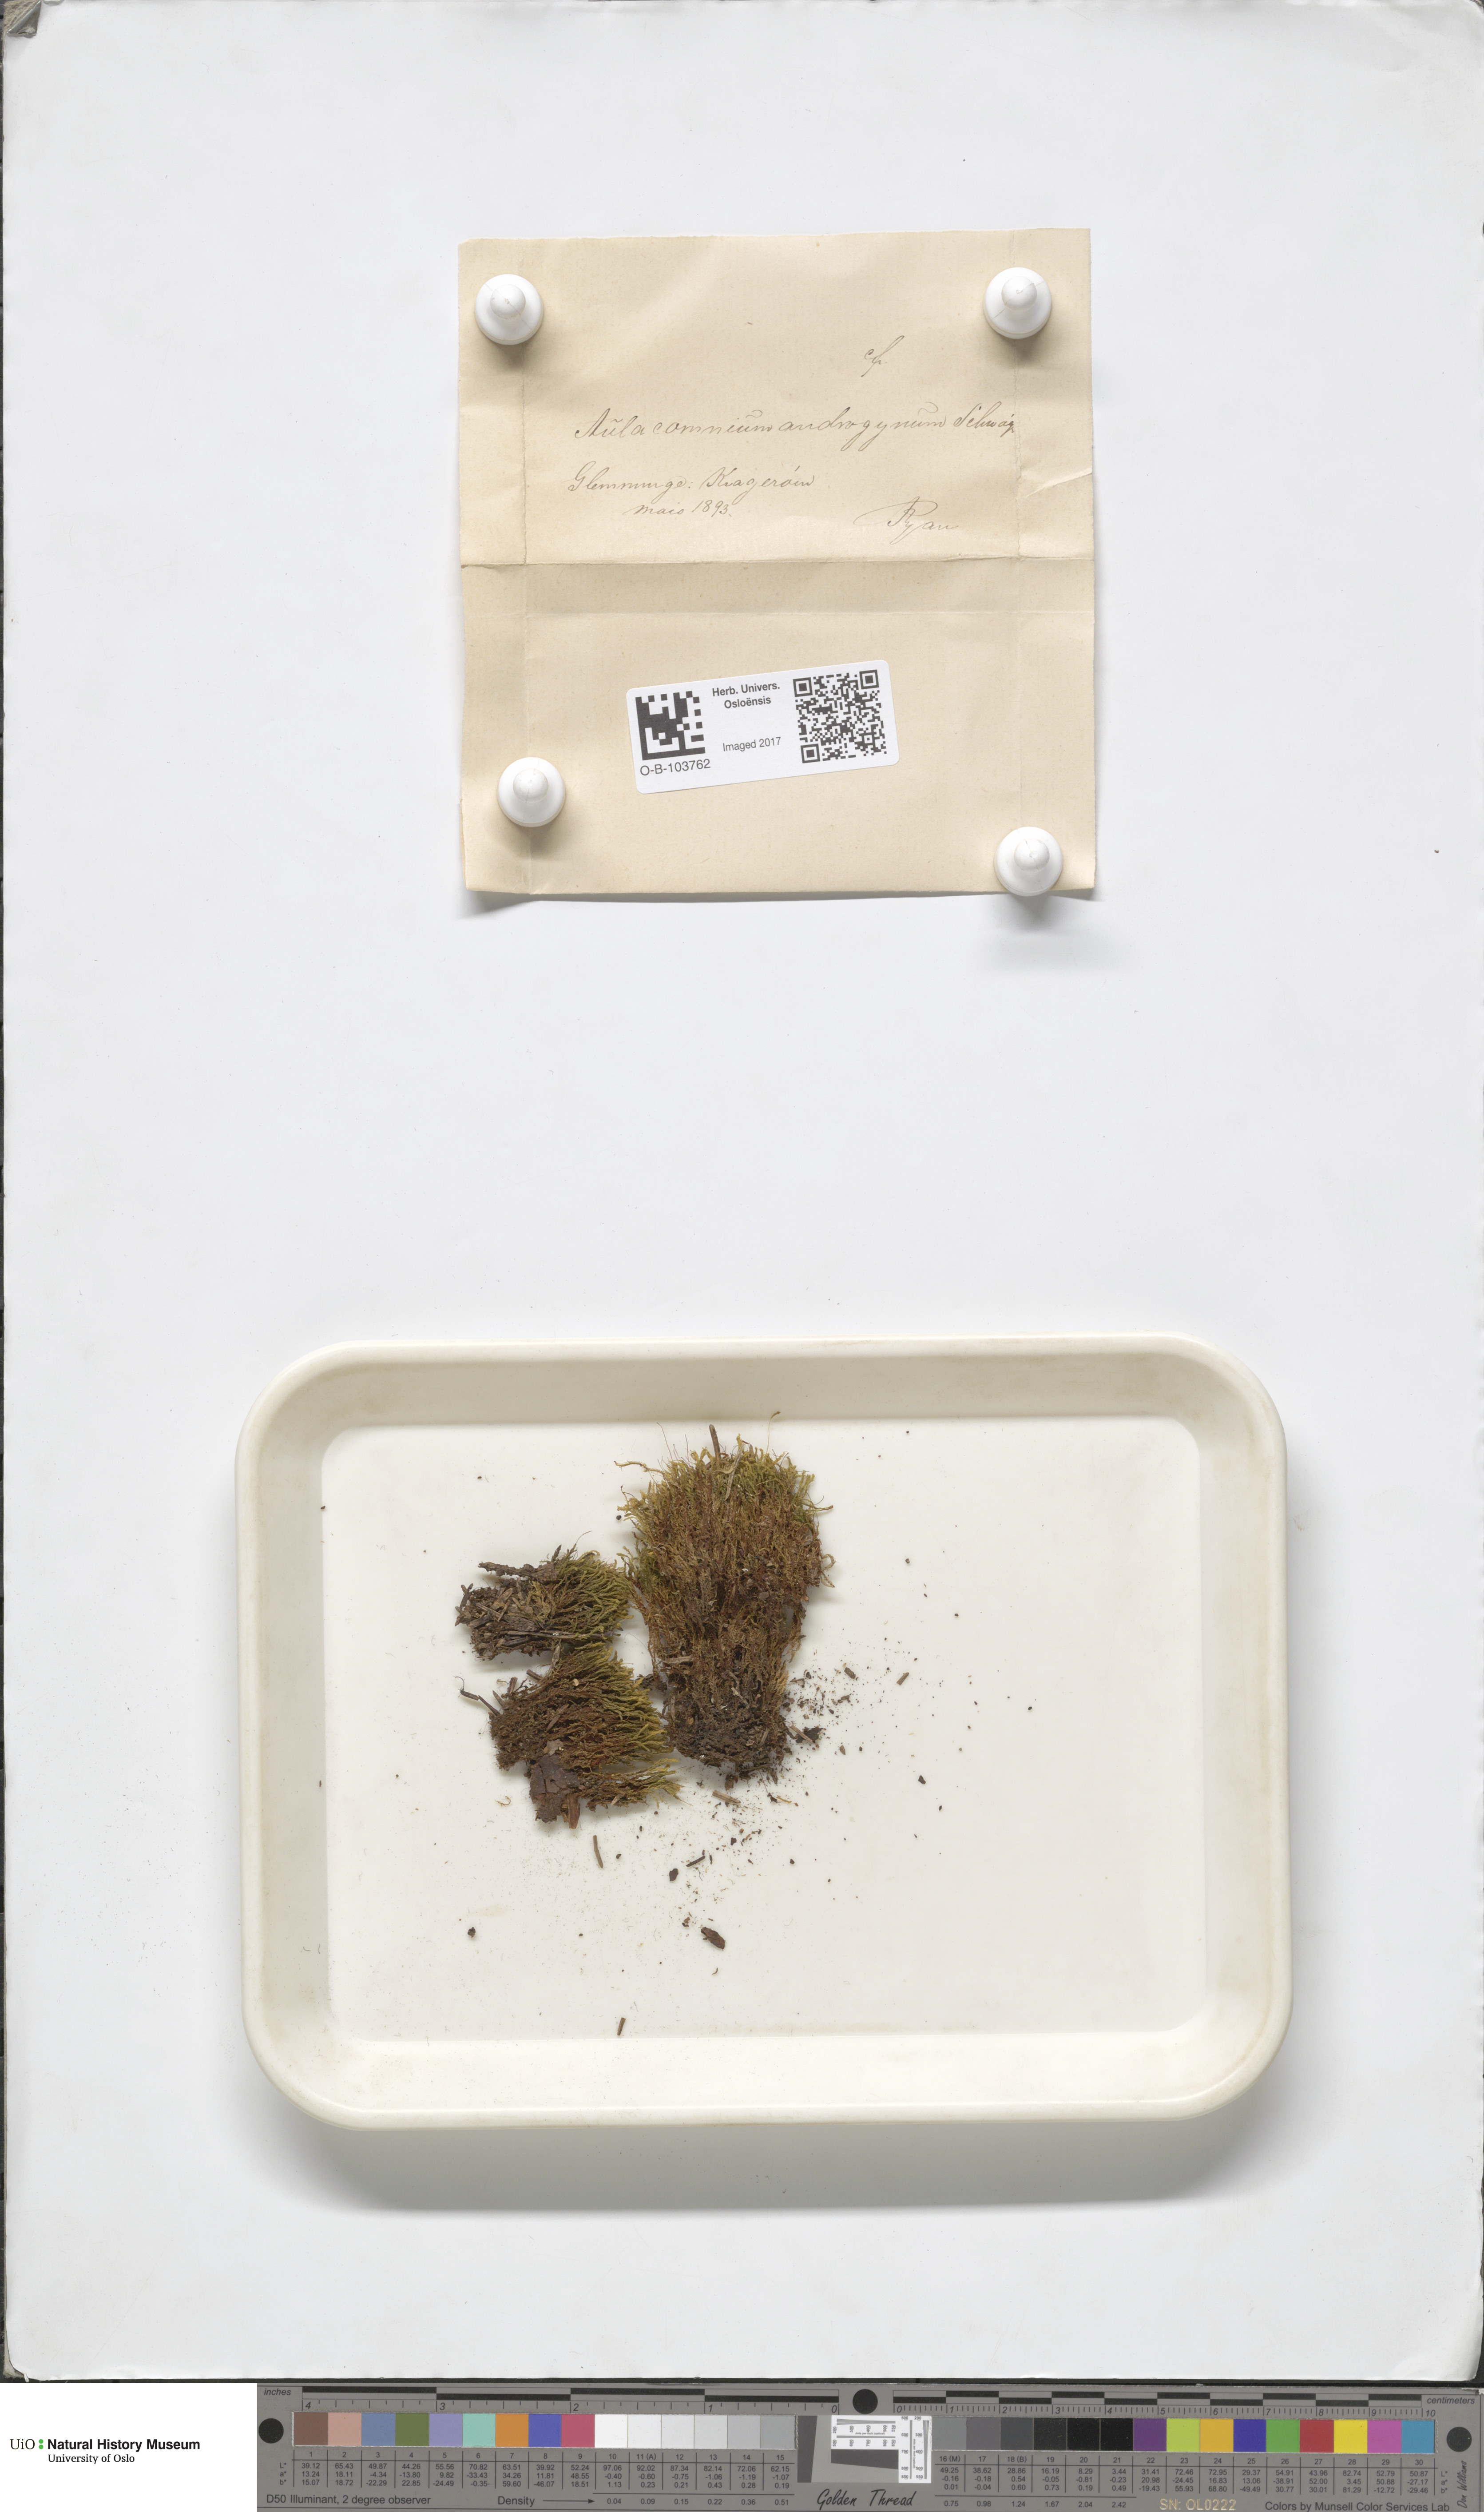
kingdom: Plantae
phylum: Bryophyta
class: Bryopsida
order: Aulacomniales
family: Aulacomniaceae
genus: Aulacomnium
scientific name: Aulacomnium androgynum
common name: Little groove moss
